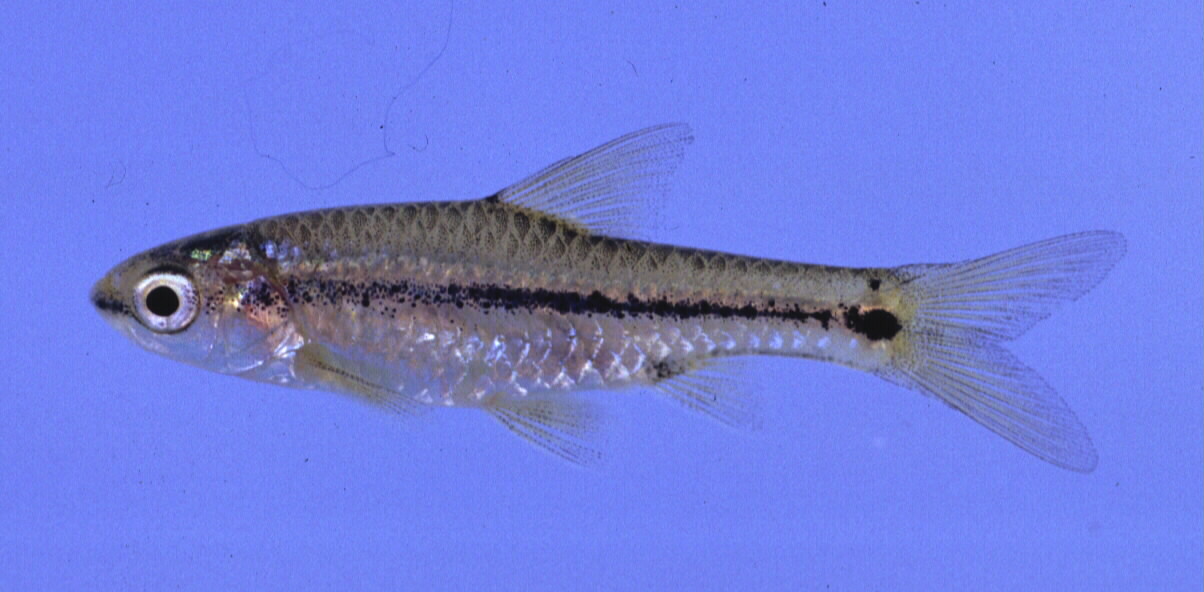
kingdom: Animalia
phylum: Chordata
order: Cypriniformes
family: Cyprinidae
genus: Enteromius
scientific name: Enteromius macrotaenia
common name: Broadband barb
